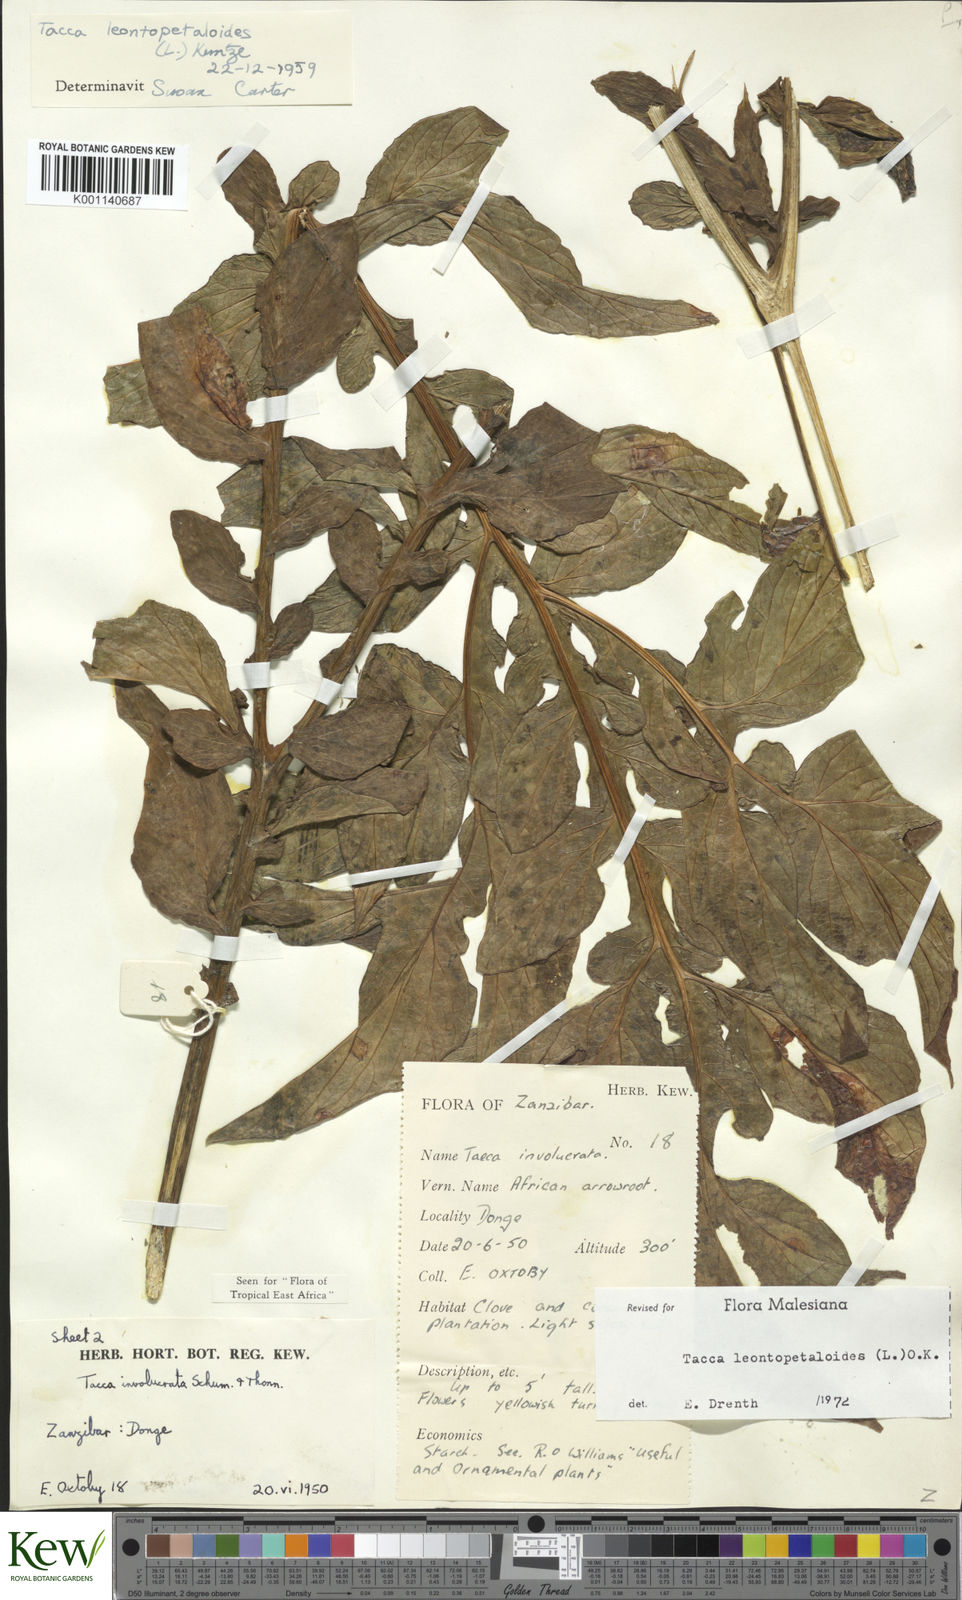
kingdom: Plantae
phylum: Tracheophyta
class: Liliopsida
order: Dioscoreales
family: Dioscoreaceae
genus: Tacca
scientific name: Tacca leontopetaloides
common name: Arrowroot
